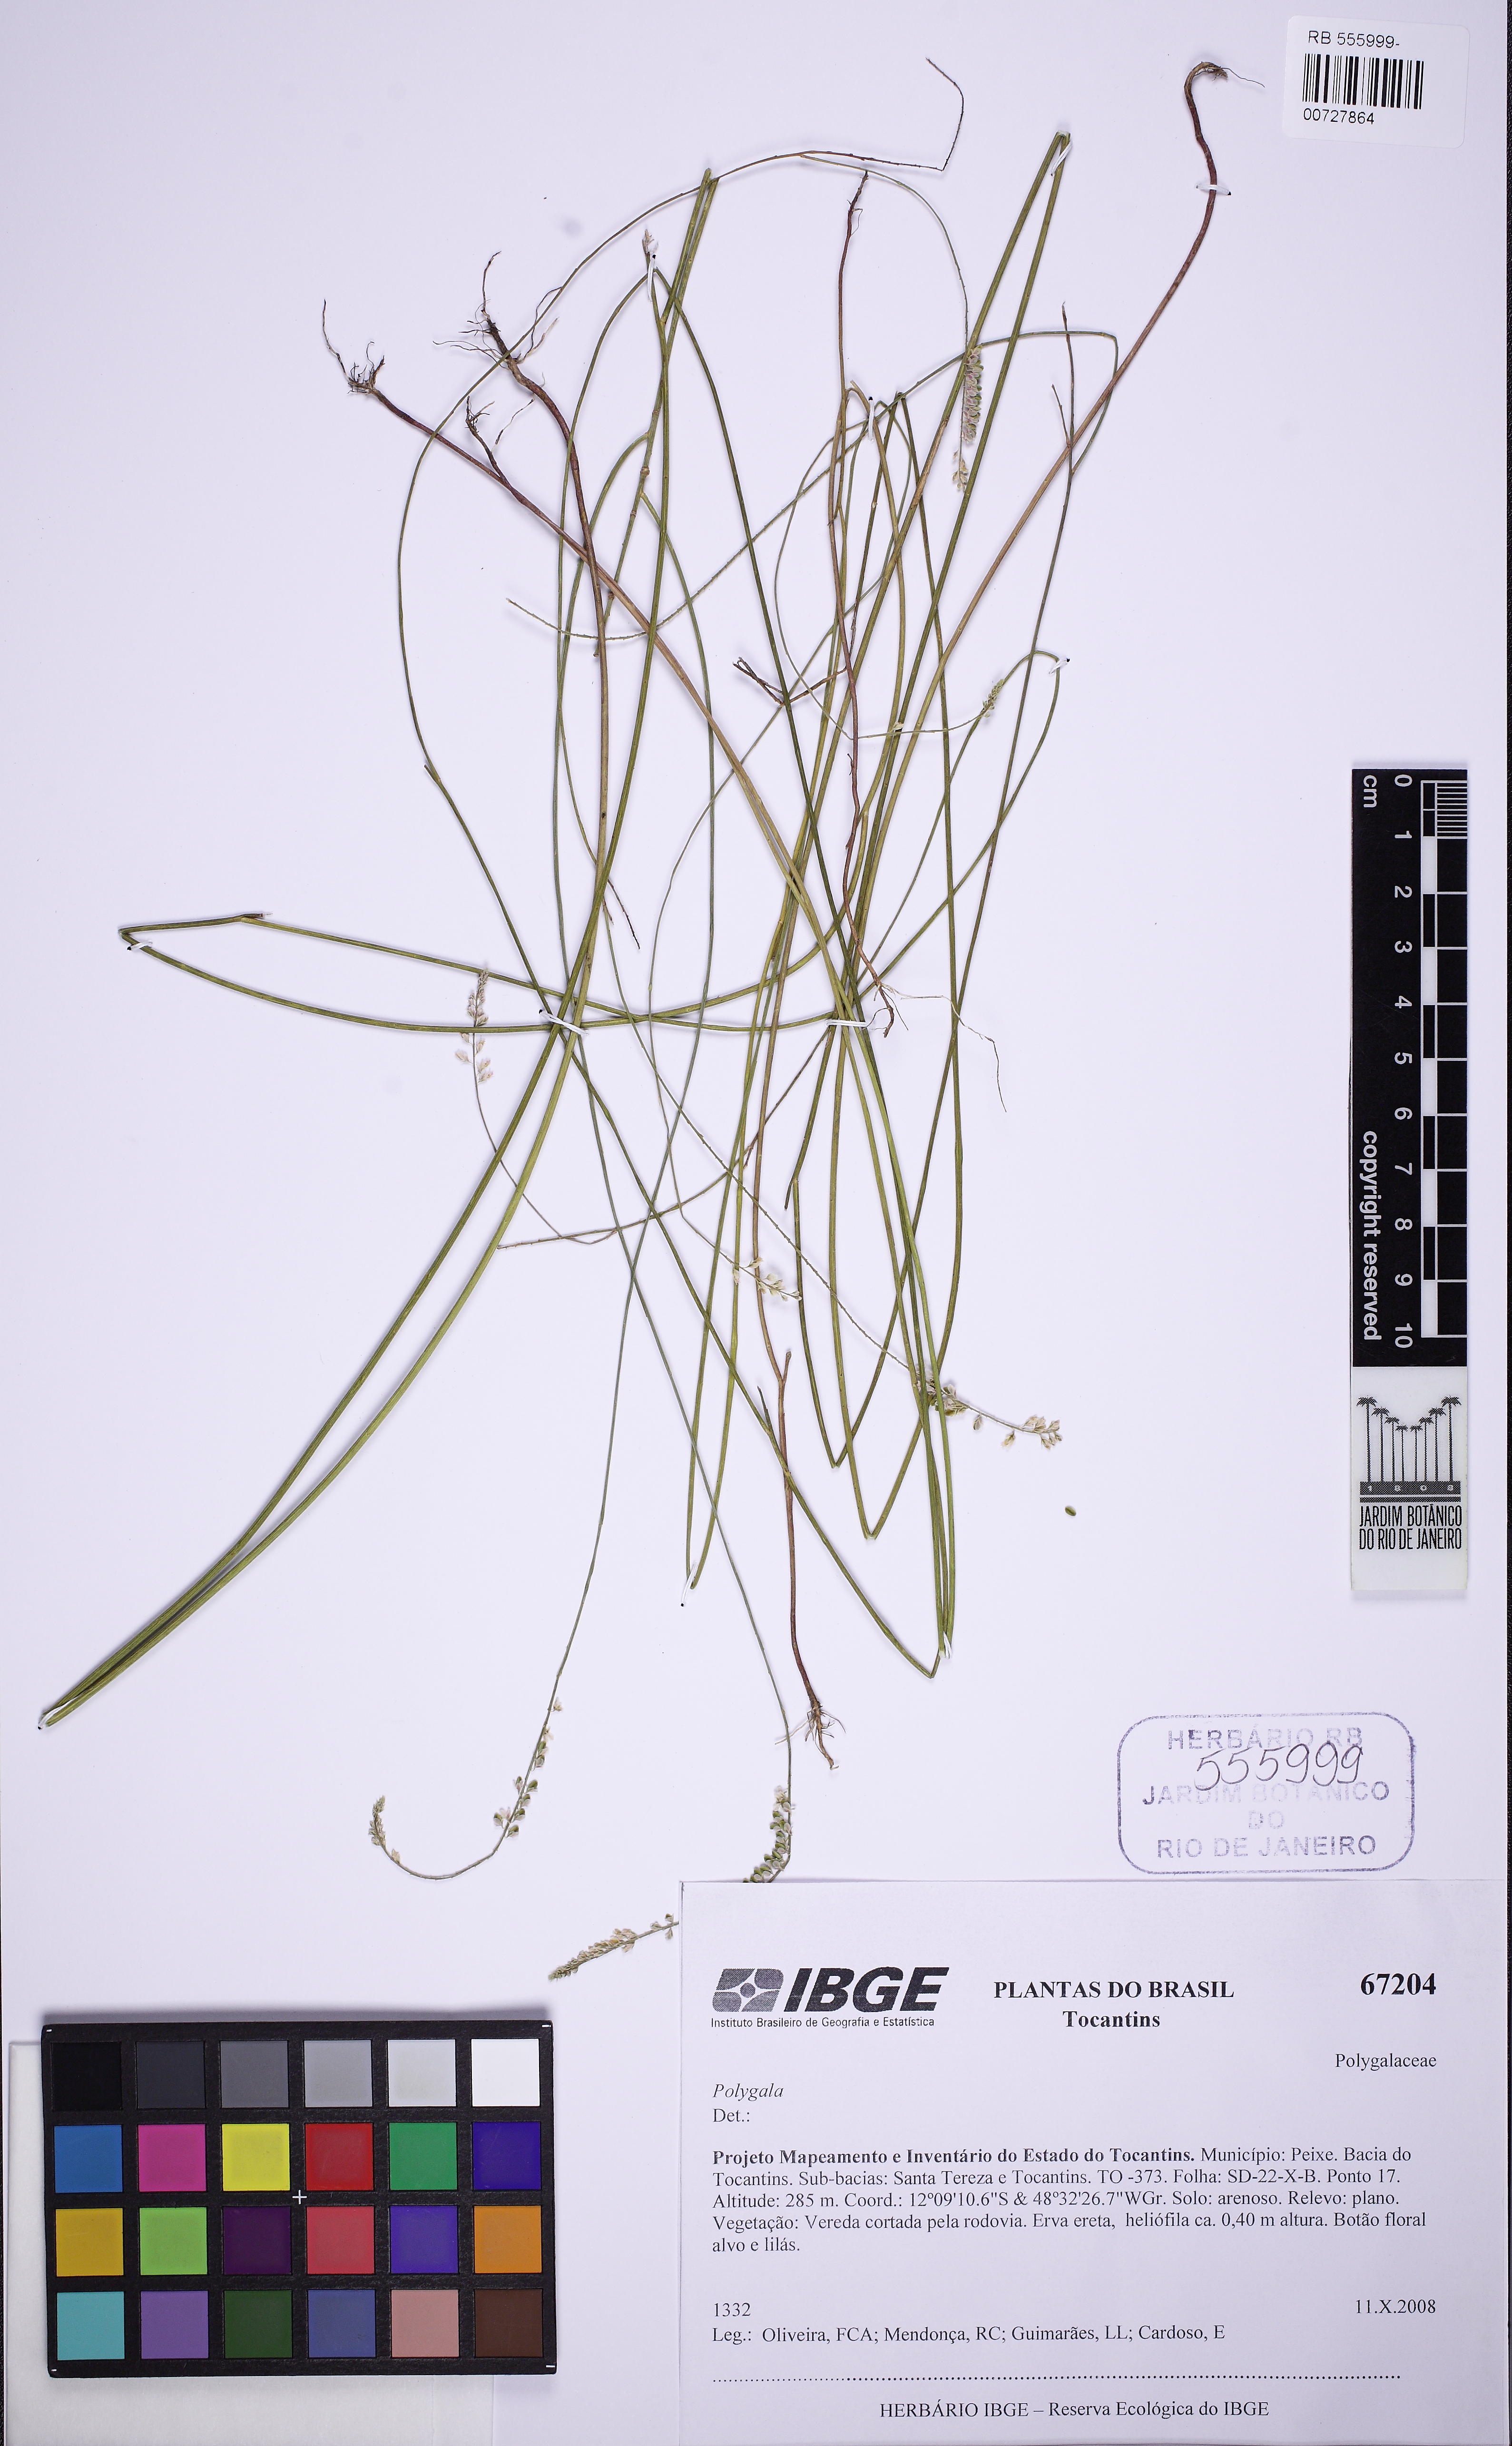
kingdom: Plantae
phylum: Tracheophyta
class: Magnoliopsida
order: Fabales
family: Polygalaceae
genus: Polygala
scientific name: Polygala gracilis
